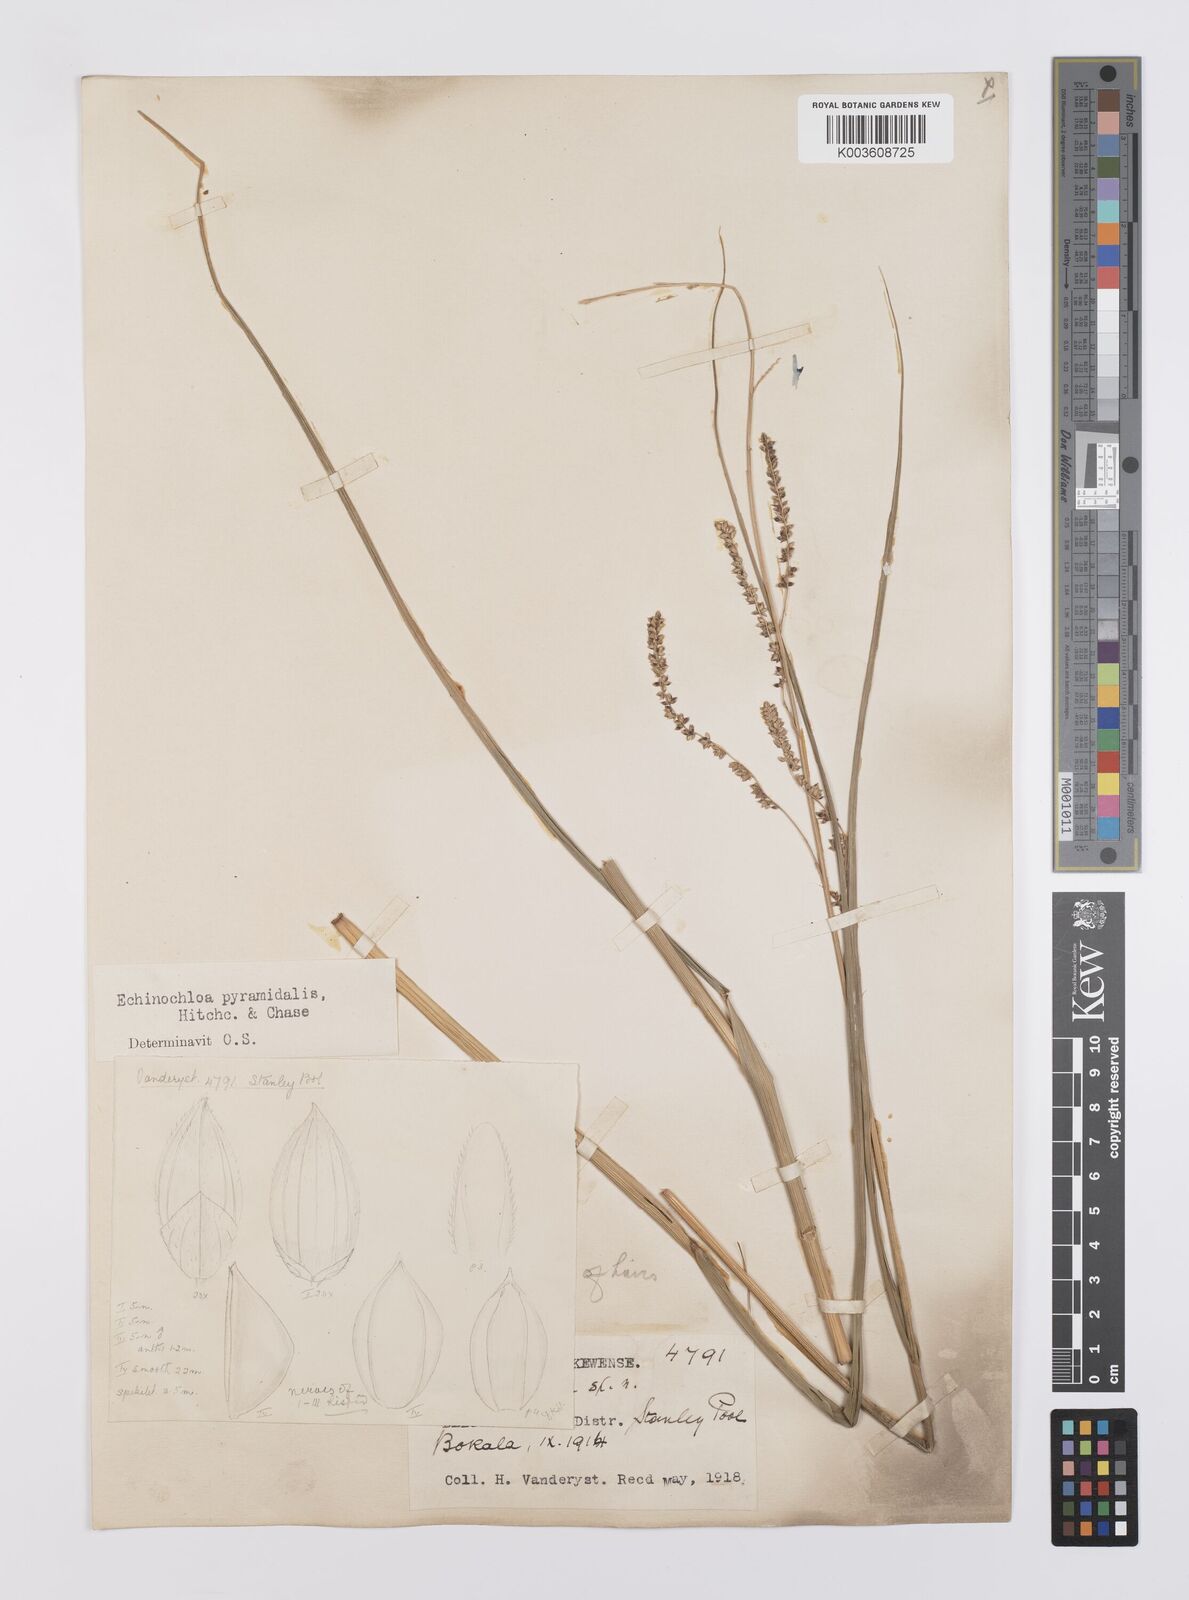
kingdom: Plantae
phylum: Tracheophyta
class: Liliopsida
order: Poales
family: Poaceae
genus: Echinochloa
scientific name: Echinochloa pyramidalis
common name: Antelope grass
